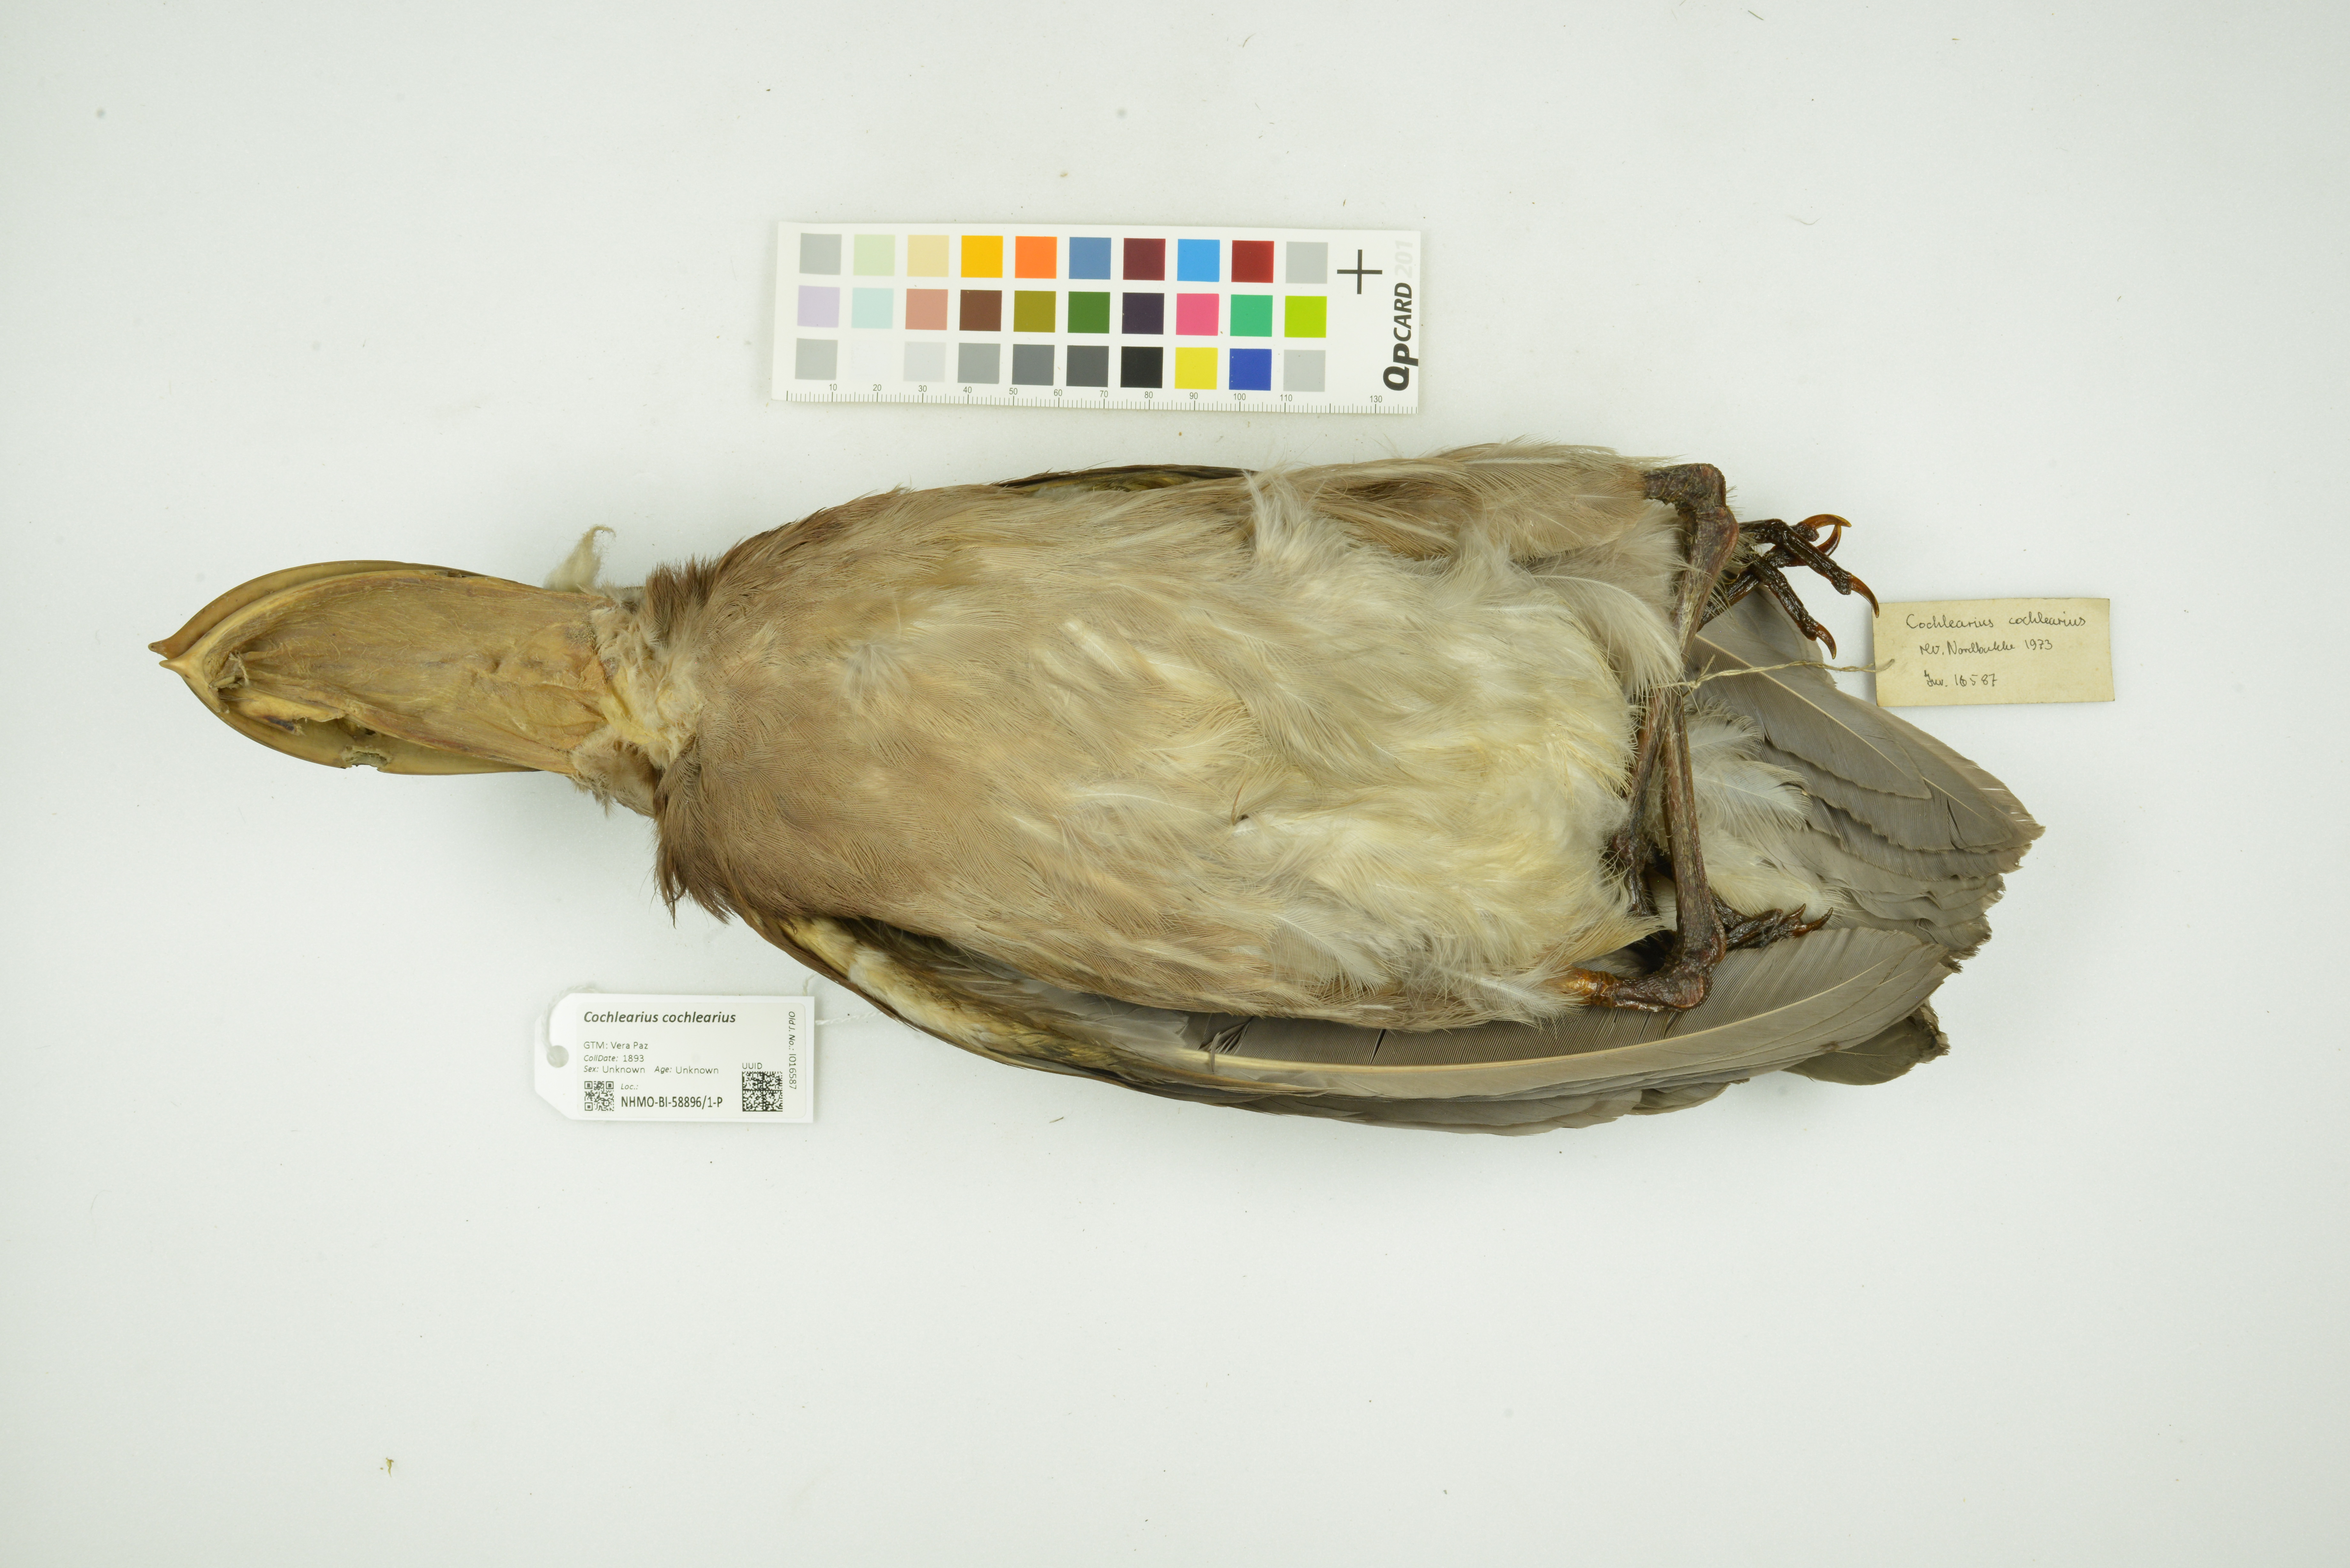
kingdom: Animalia
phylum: Chordata
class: Aves
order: Pelecaniformes
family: Ardeidae
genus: Cochlearius
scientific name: Cochlearius cochlearius
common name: Boat-billed heron
